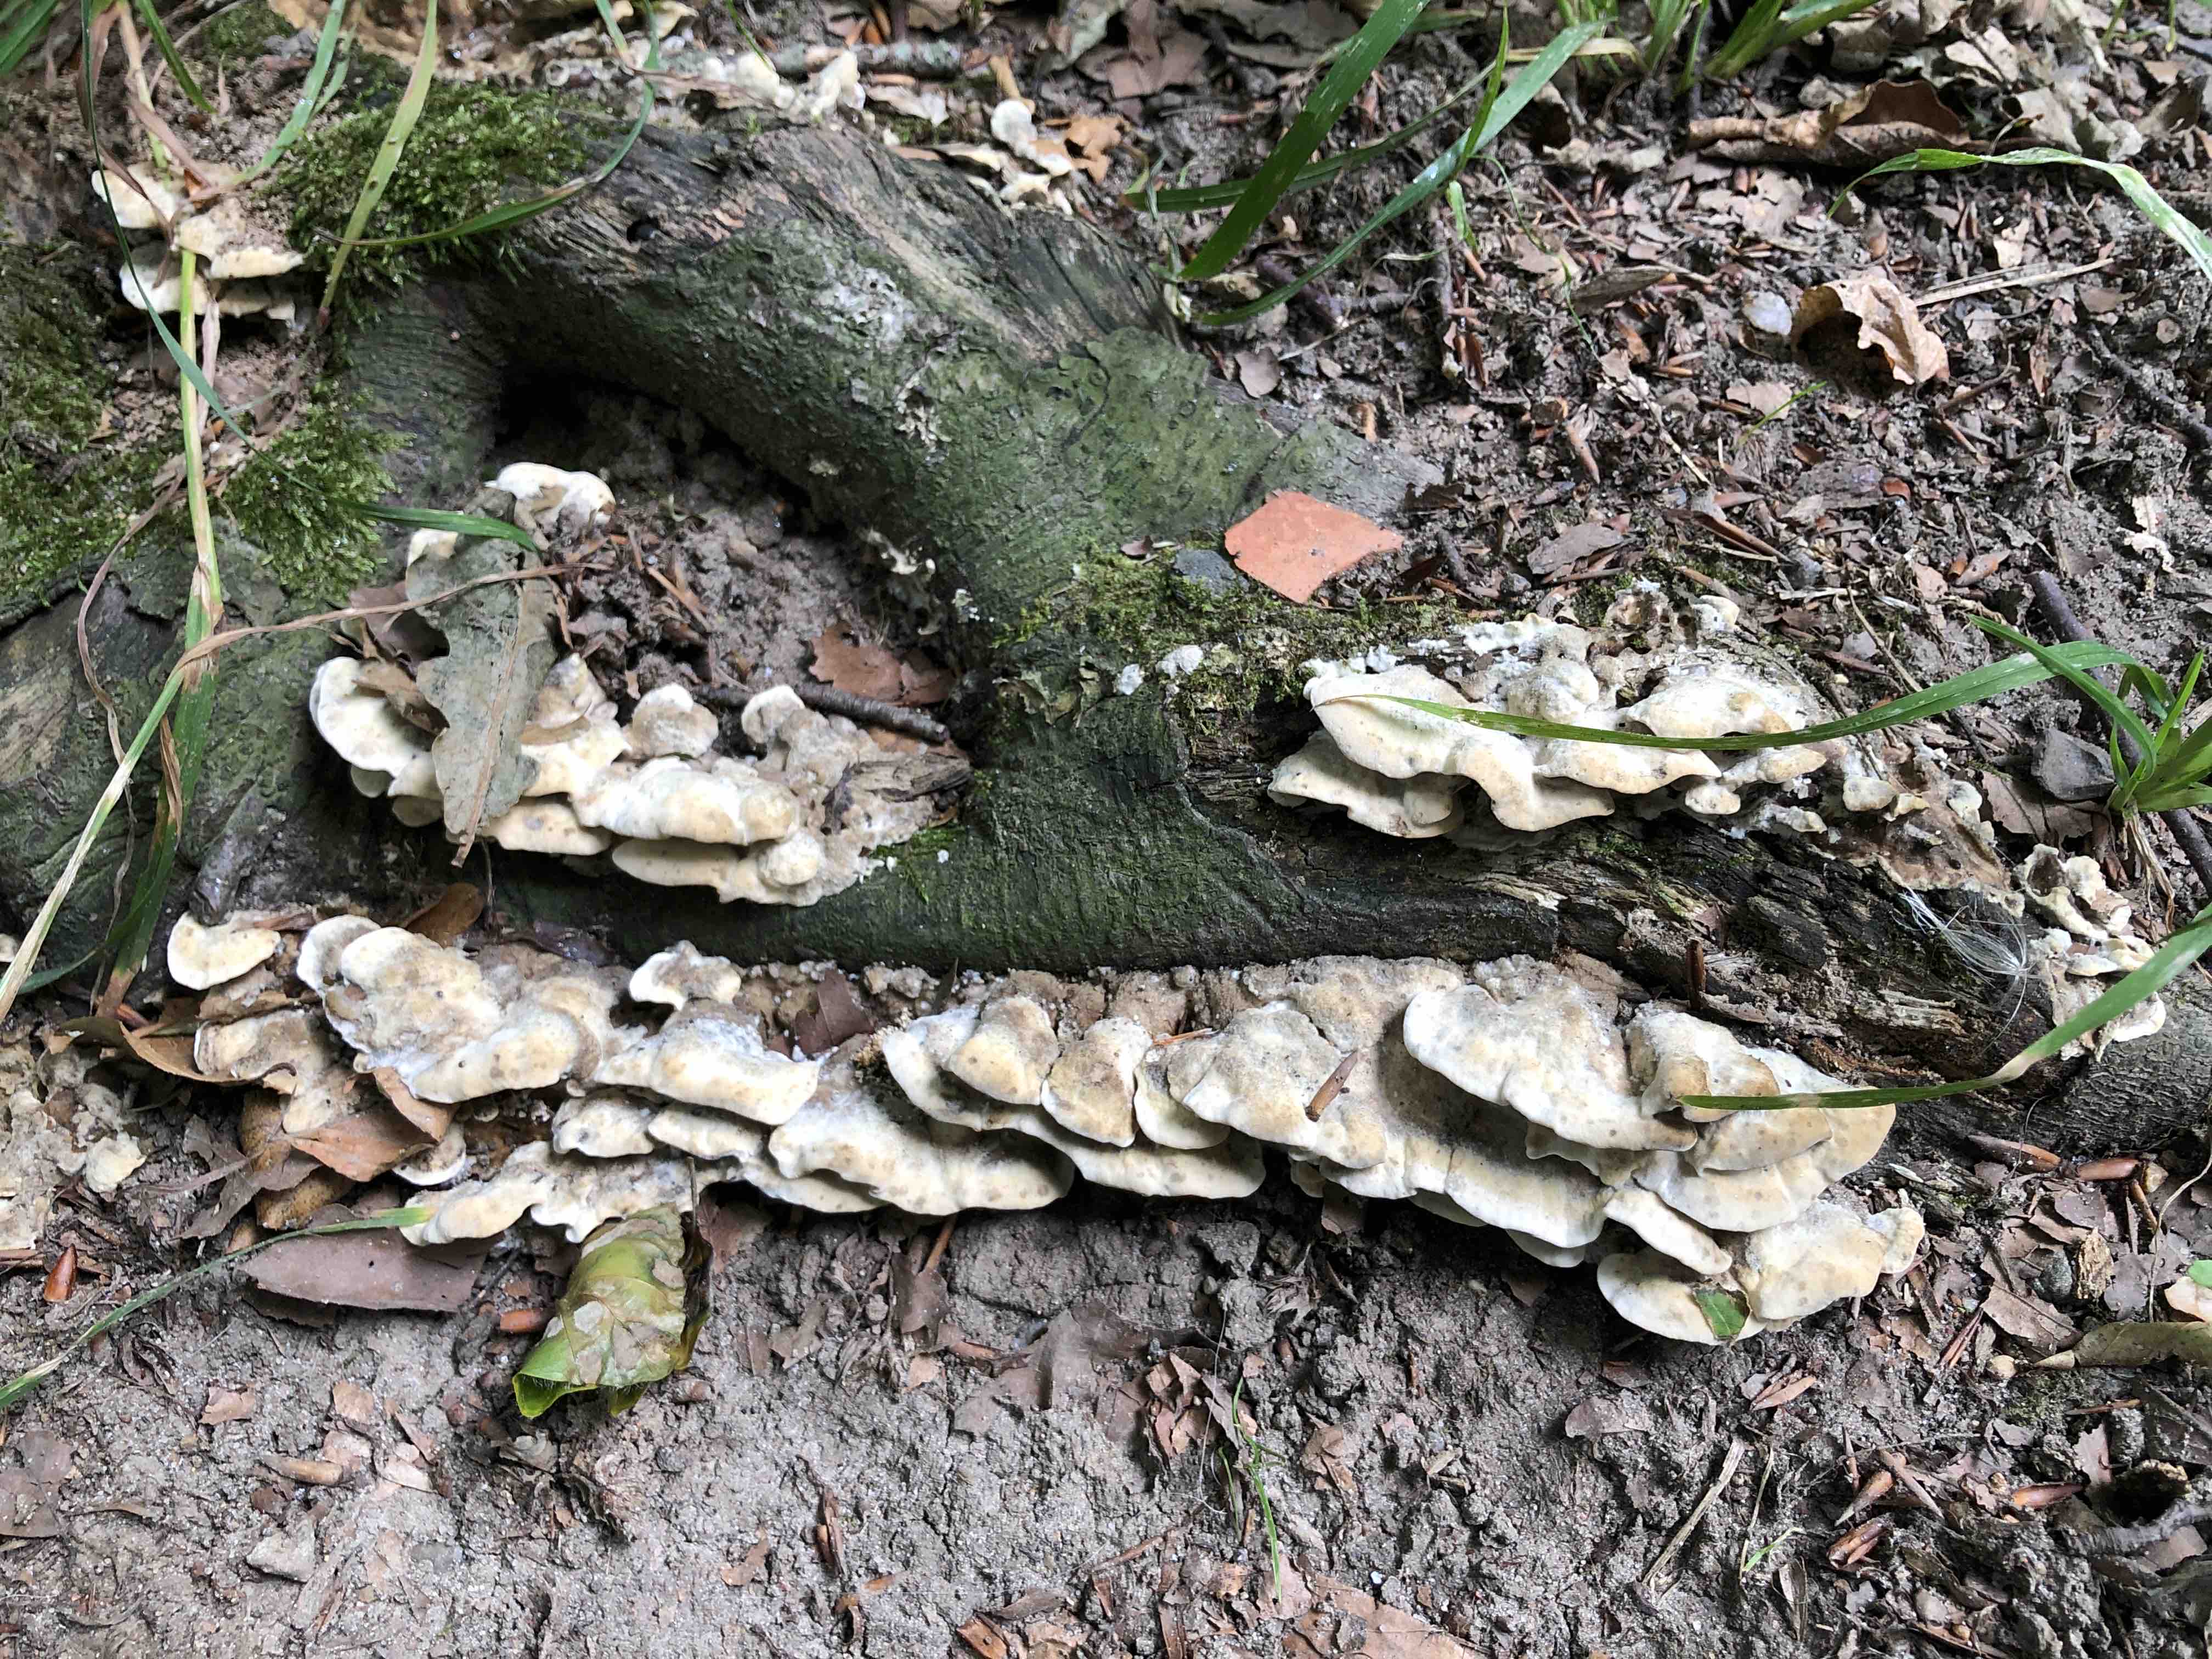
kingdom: Fungi
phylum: Basidiomycota
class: Agaricomycetes
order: Polyporales
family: Phanerochaetaceae
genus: Bjerkandera
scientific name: Bjerkandera adusta
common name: sveden sodporesvamp
